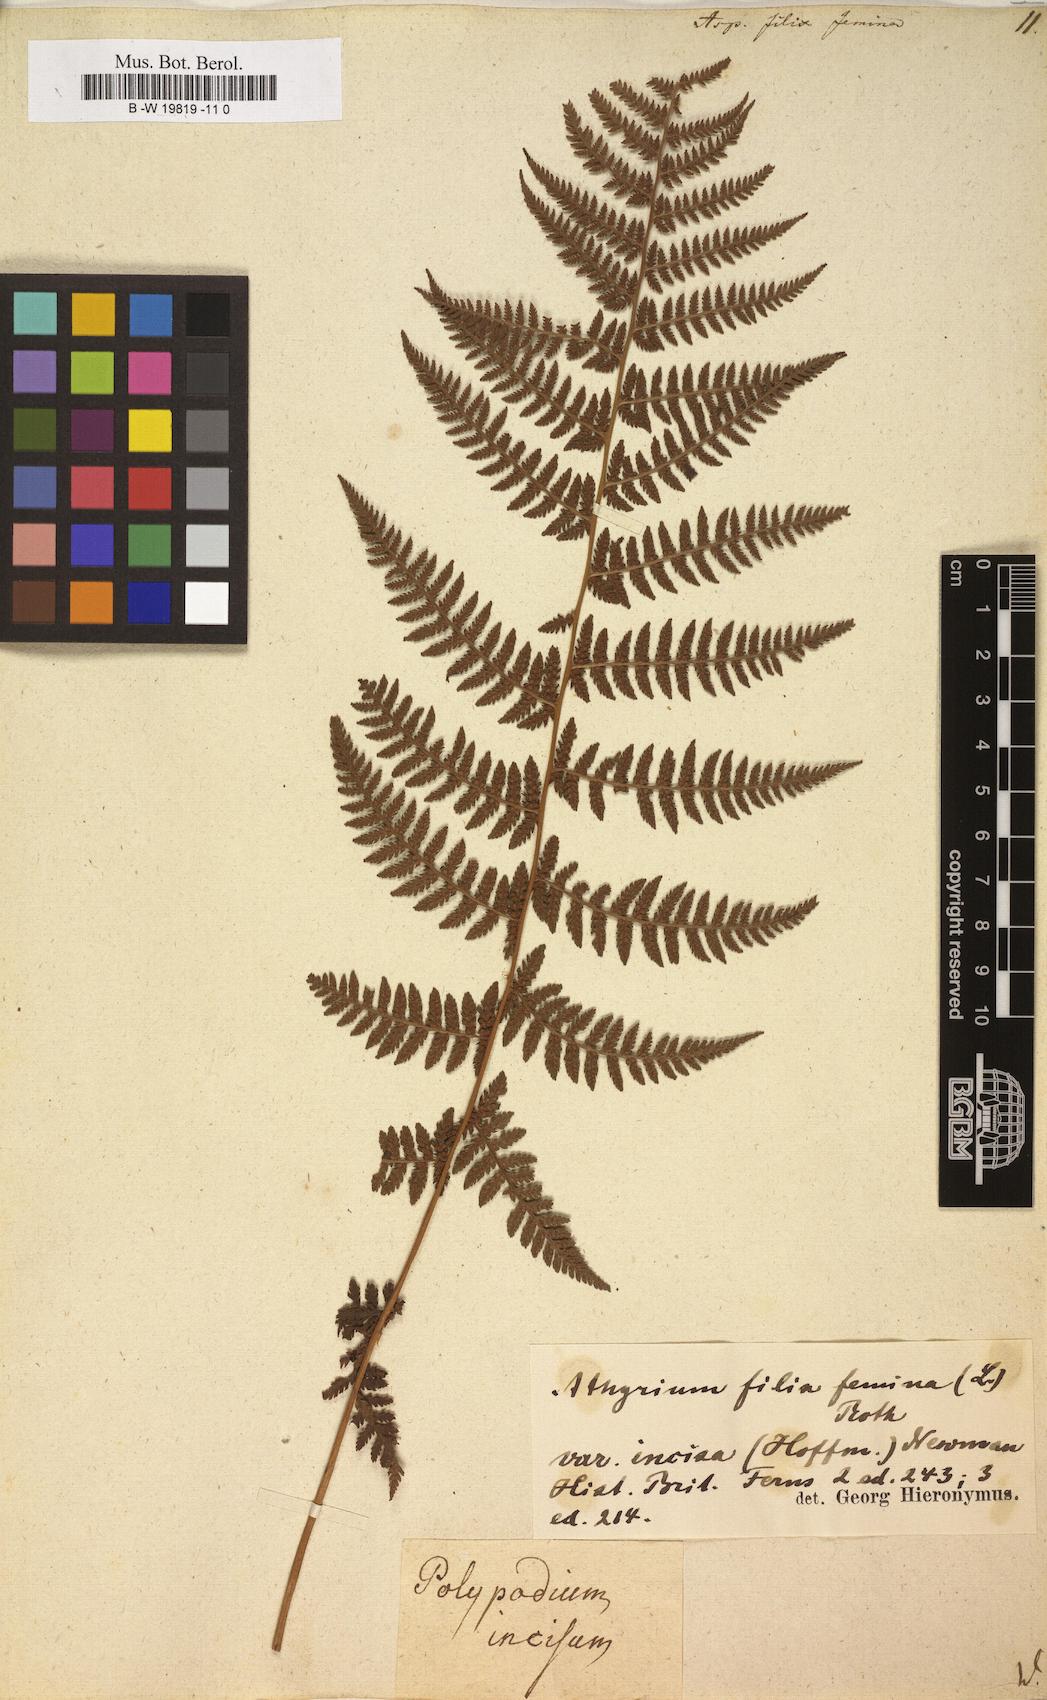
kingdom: Plantae
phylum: Tracheophyta
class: Polypodiopsida
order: Polypodiales
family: Athyriaceae
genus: Athyrium
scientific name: Athyrium filix-femina
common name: Lady fern
